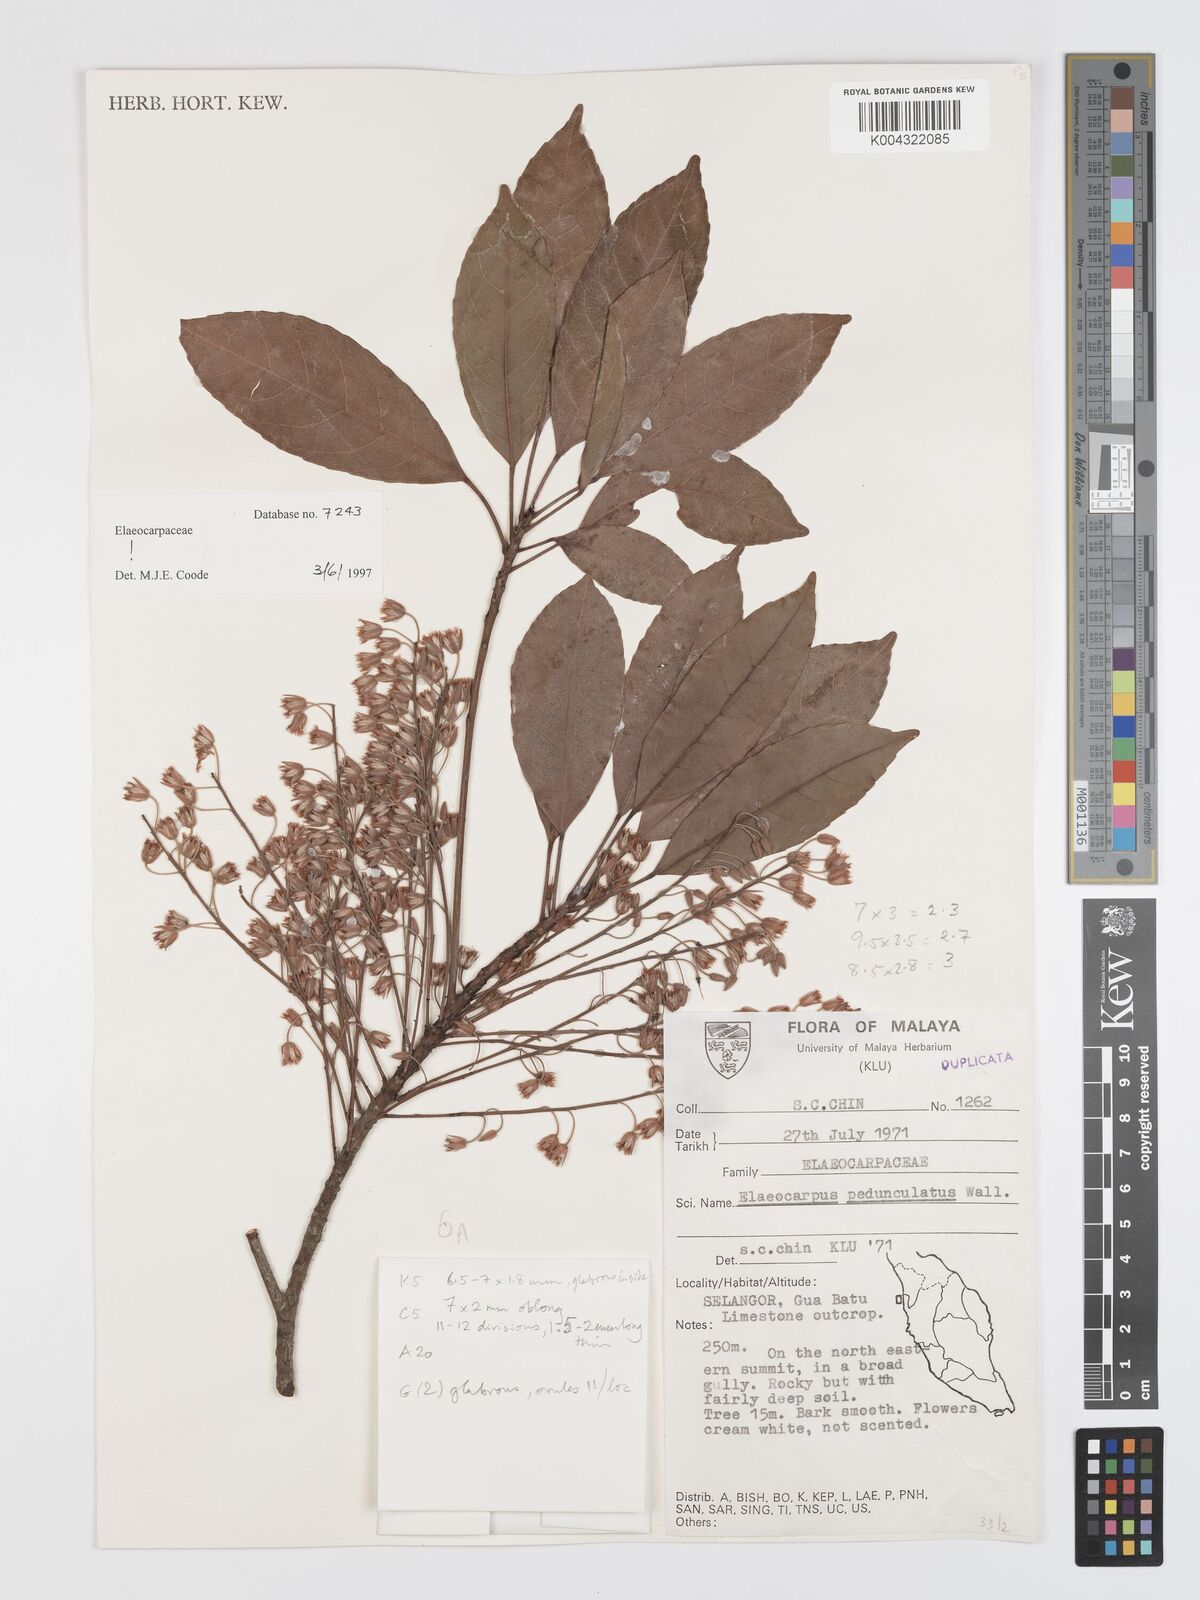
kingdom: Plantae
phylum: Tracheophyta
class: Magnoliopsida
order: Oxalidales
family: Elaeocarpaceae
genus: Elaeocarpus
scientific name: Elaeocarpus pedunculatus
